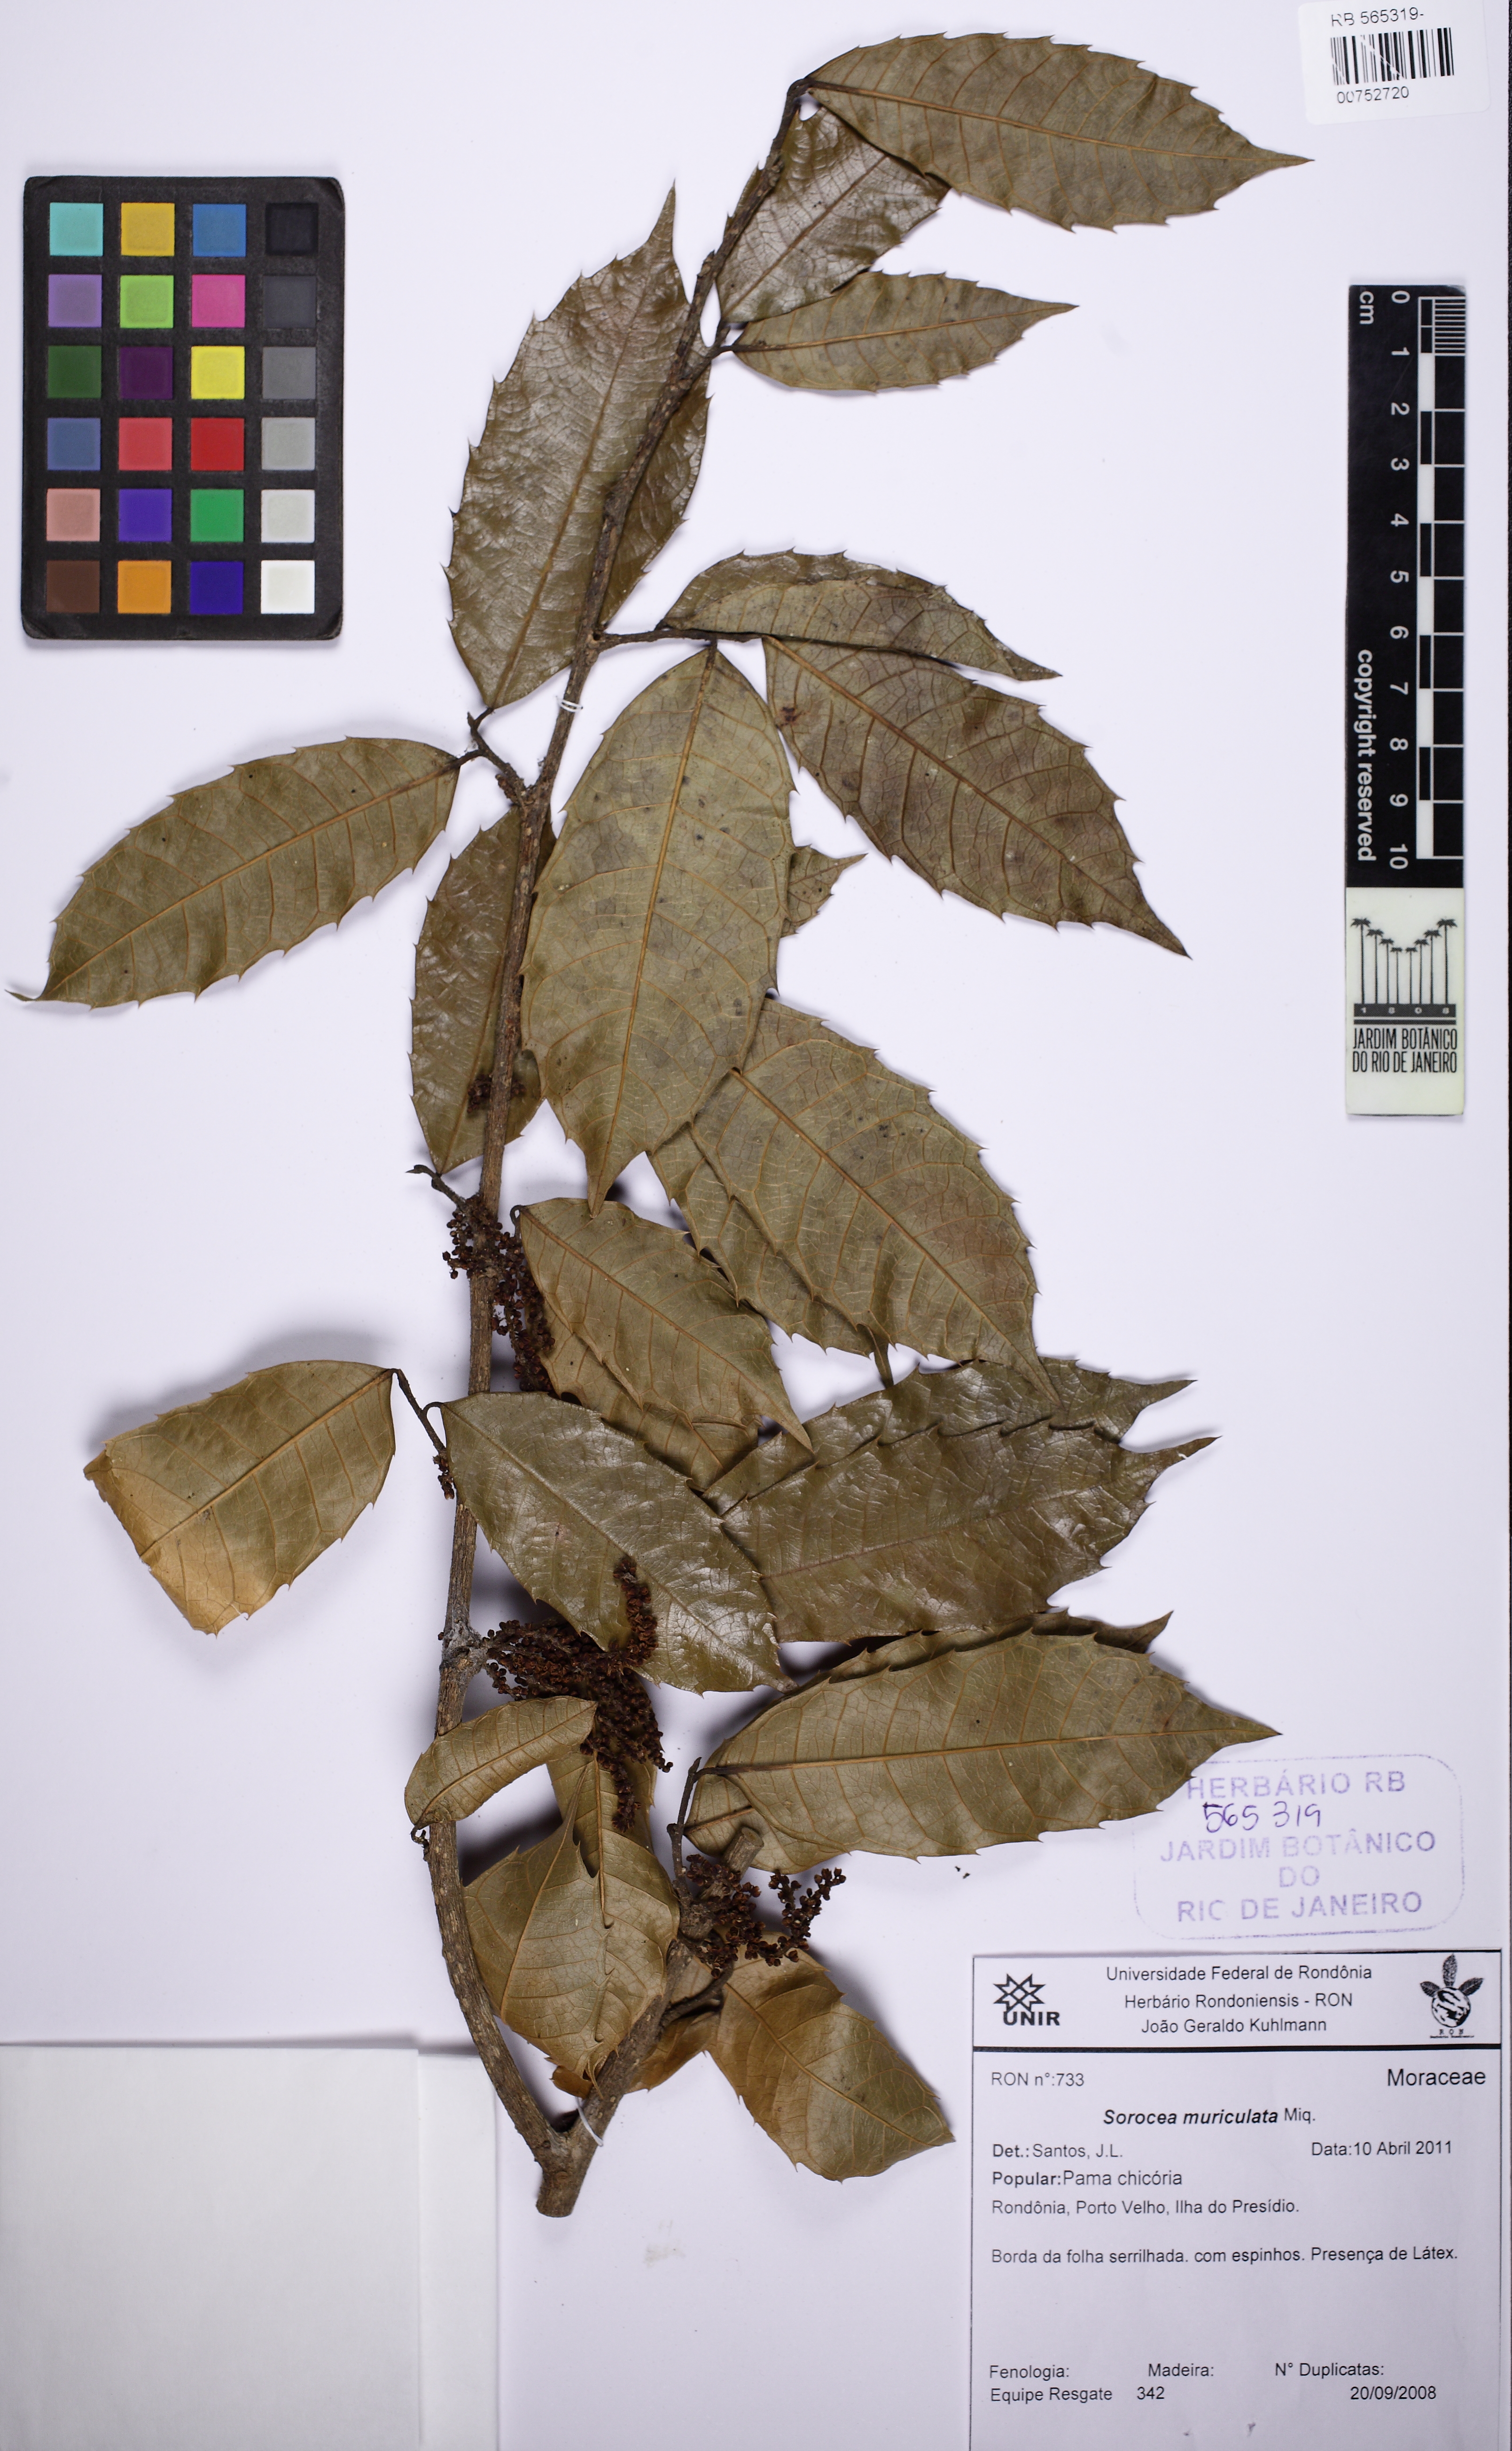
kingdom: Plantae
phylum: Tracheophyta
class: Magnoliopsida
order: Rosales
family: Moraceae
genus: Sorocea
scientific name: Sorocea muriculata
